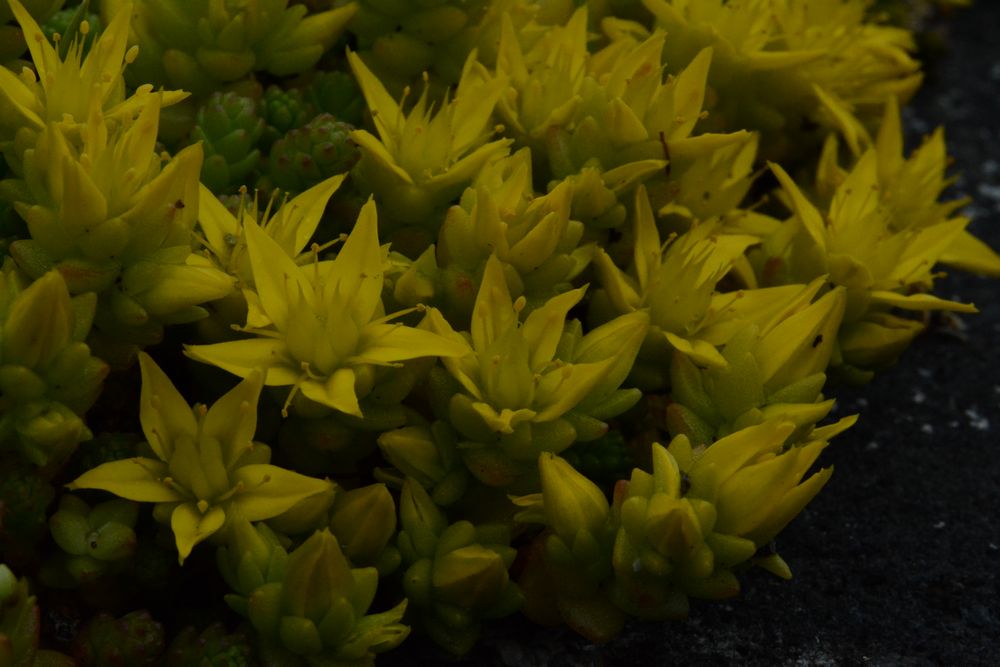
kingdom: Plantae
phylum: Tracheophyta
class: Magnoliopsida
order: Saxifragales
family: Crassulaceae
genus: Sedum
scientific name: Sedum acre
